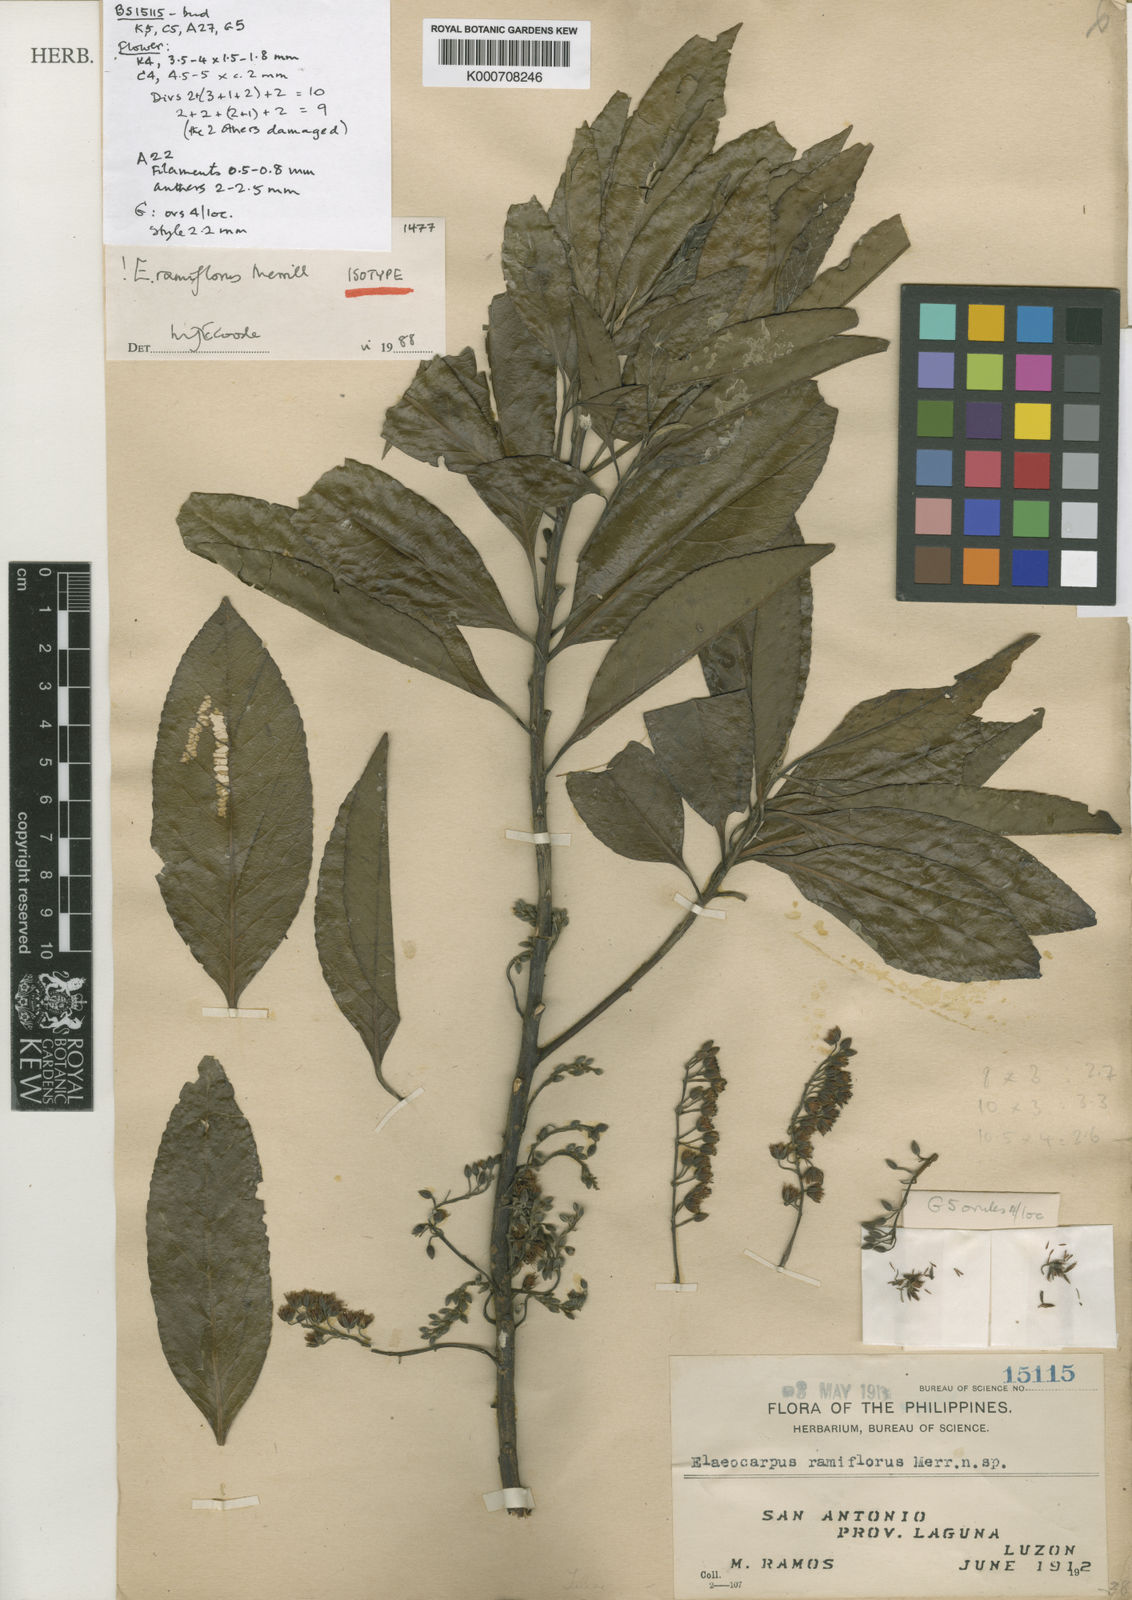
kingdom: Plantae
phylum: Tracheophyta
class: Magnoliopsida
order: Oxalidales
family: Elaeocarpaceae
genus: Elaeocarpus
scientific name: Elaeocarpus angustifolius
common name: Blue marble tree
